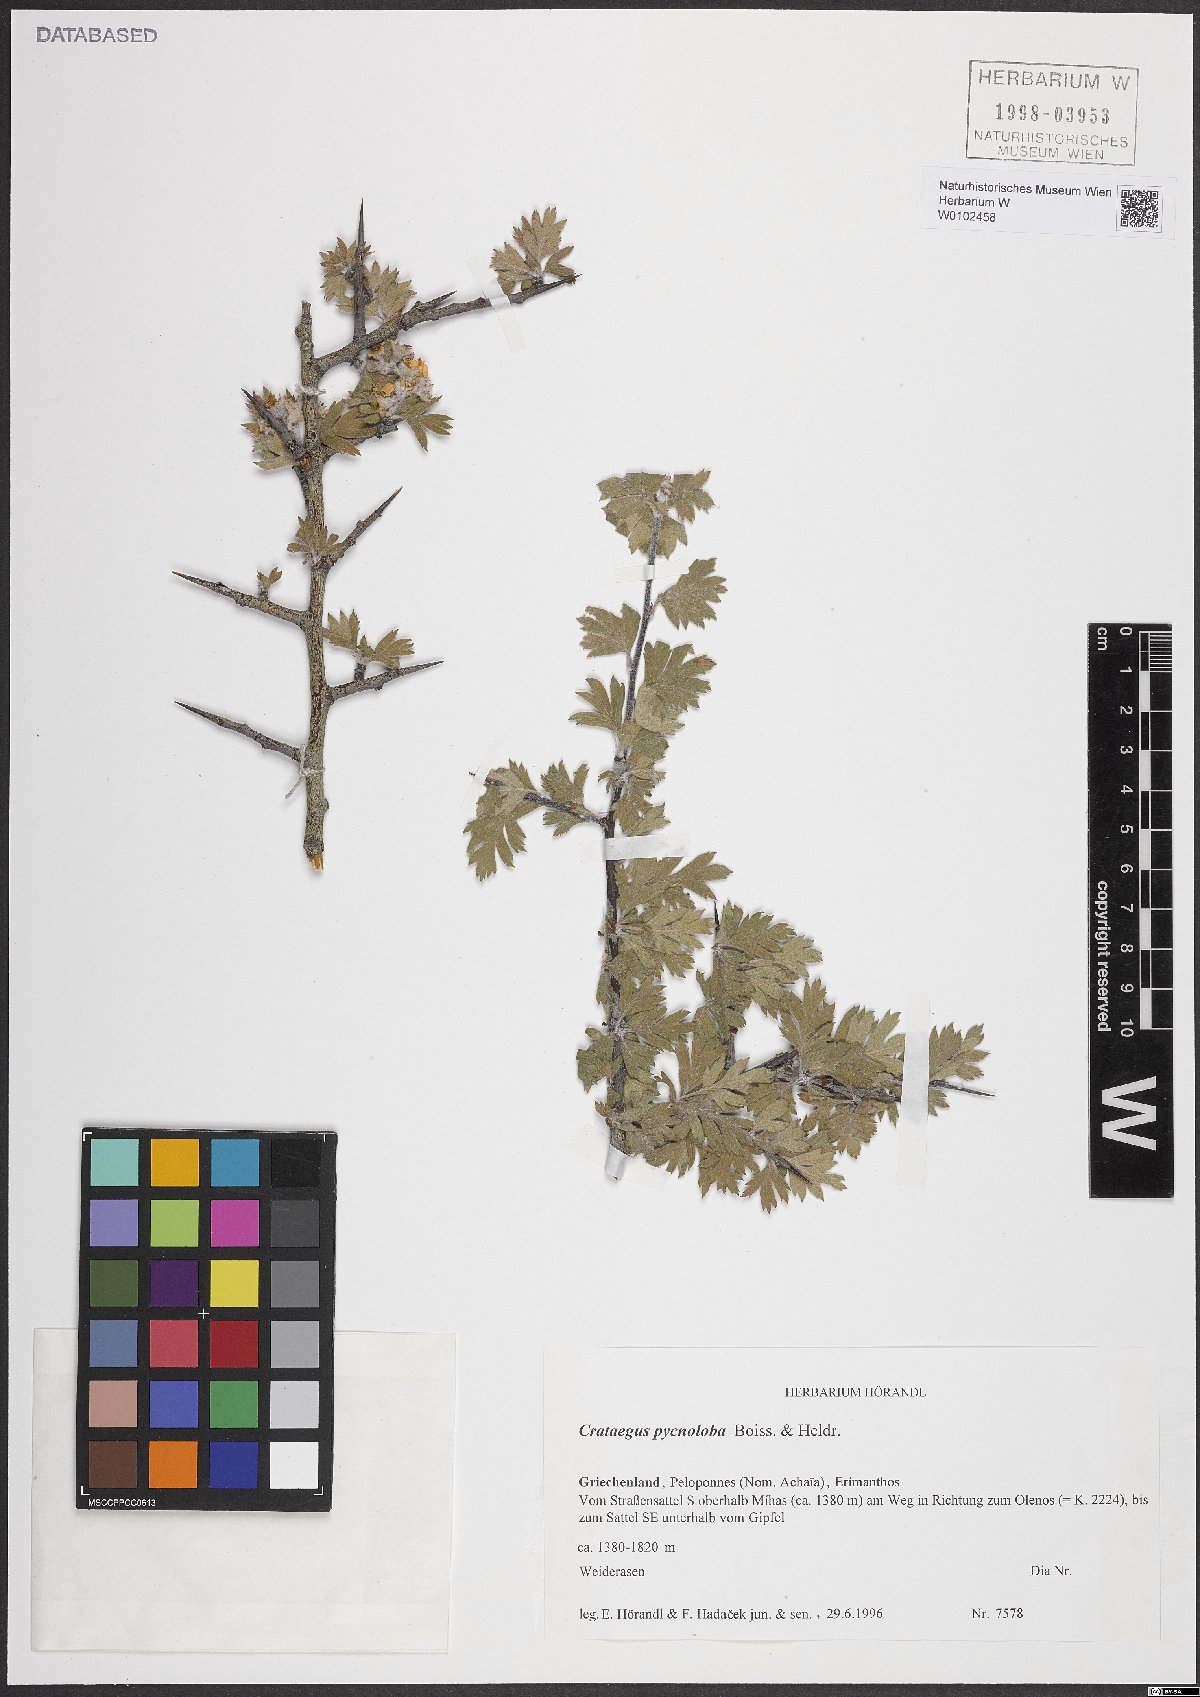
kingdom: Plantae
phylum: Tracheophyta
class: Magnoliopsida
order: Rosales
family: Rosaceae
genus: Crataegus
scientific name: Crataegus pycnoloba
